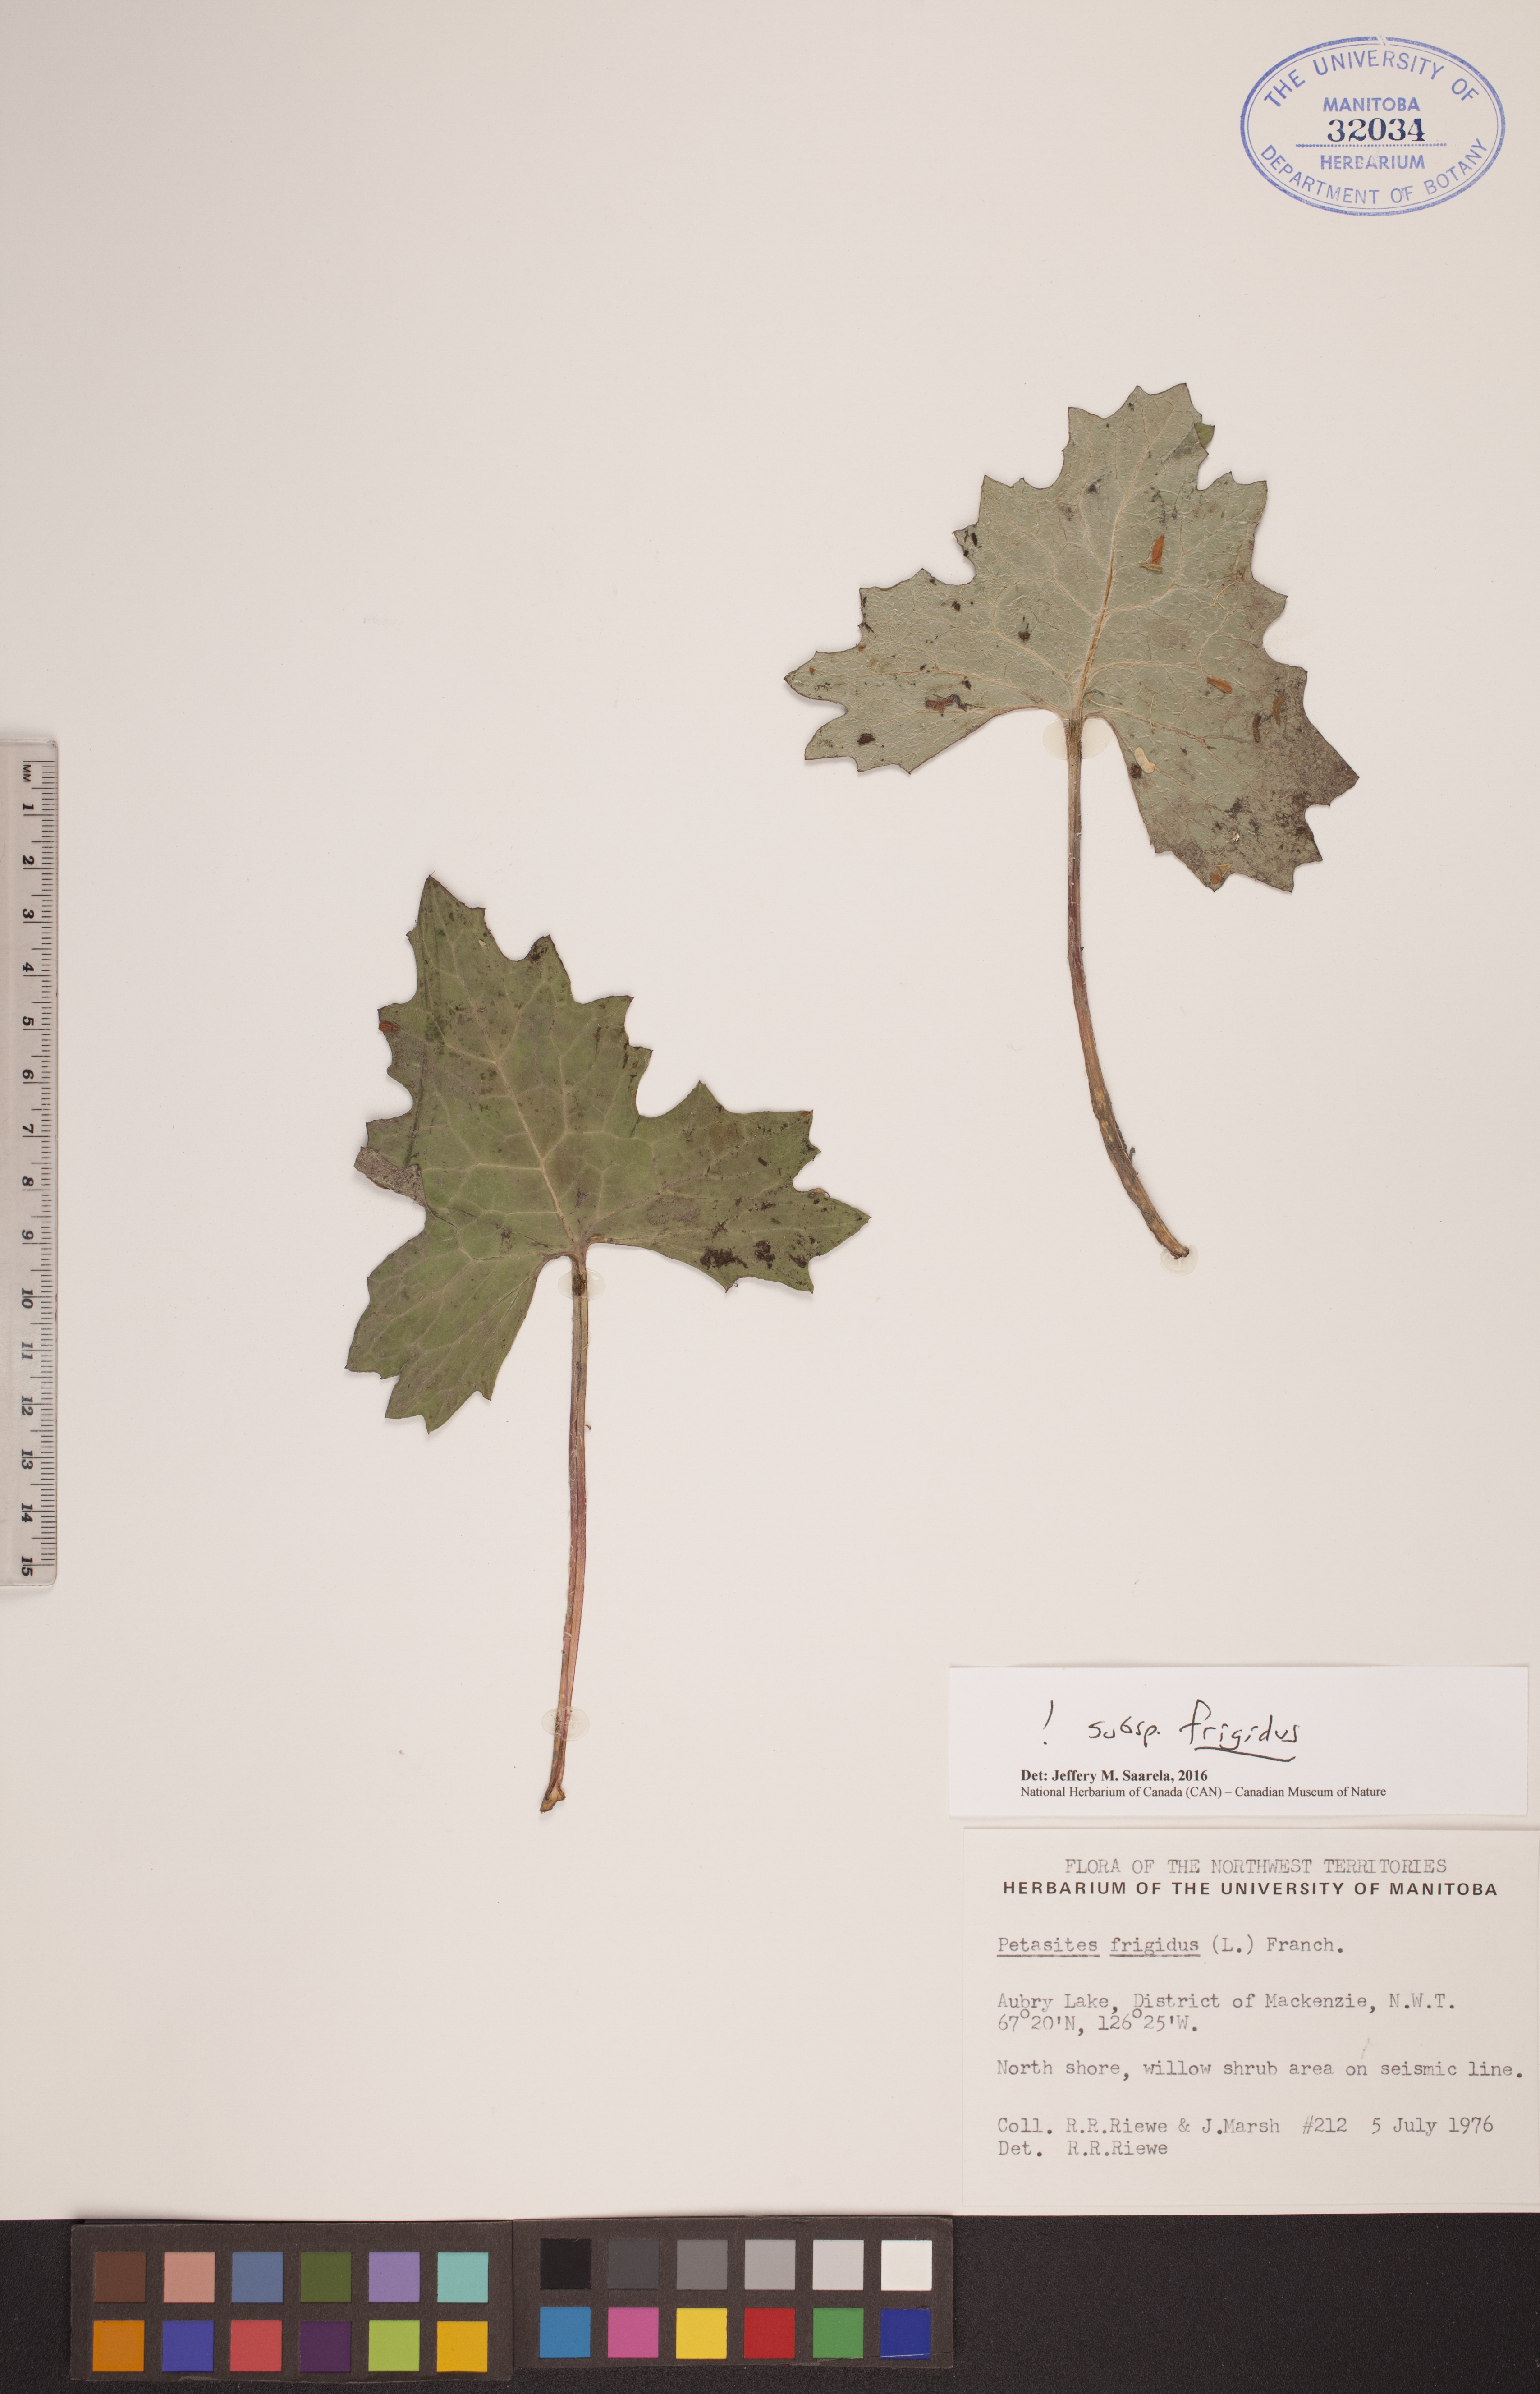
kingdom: Plantae
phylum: Tracheophyta
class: Magnoliopsida
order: Asterales
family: Asteraceae
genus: Petasites
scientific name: Petasites frigidus
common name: Arctic butterbur
